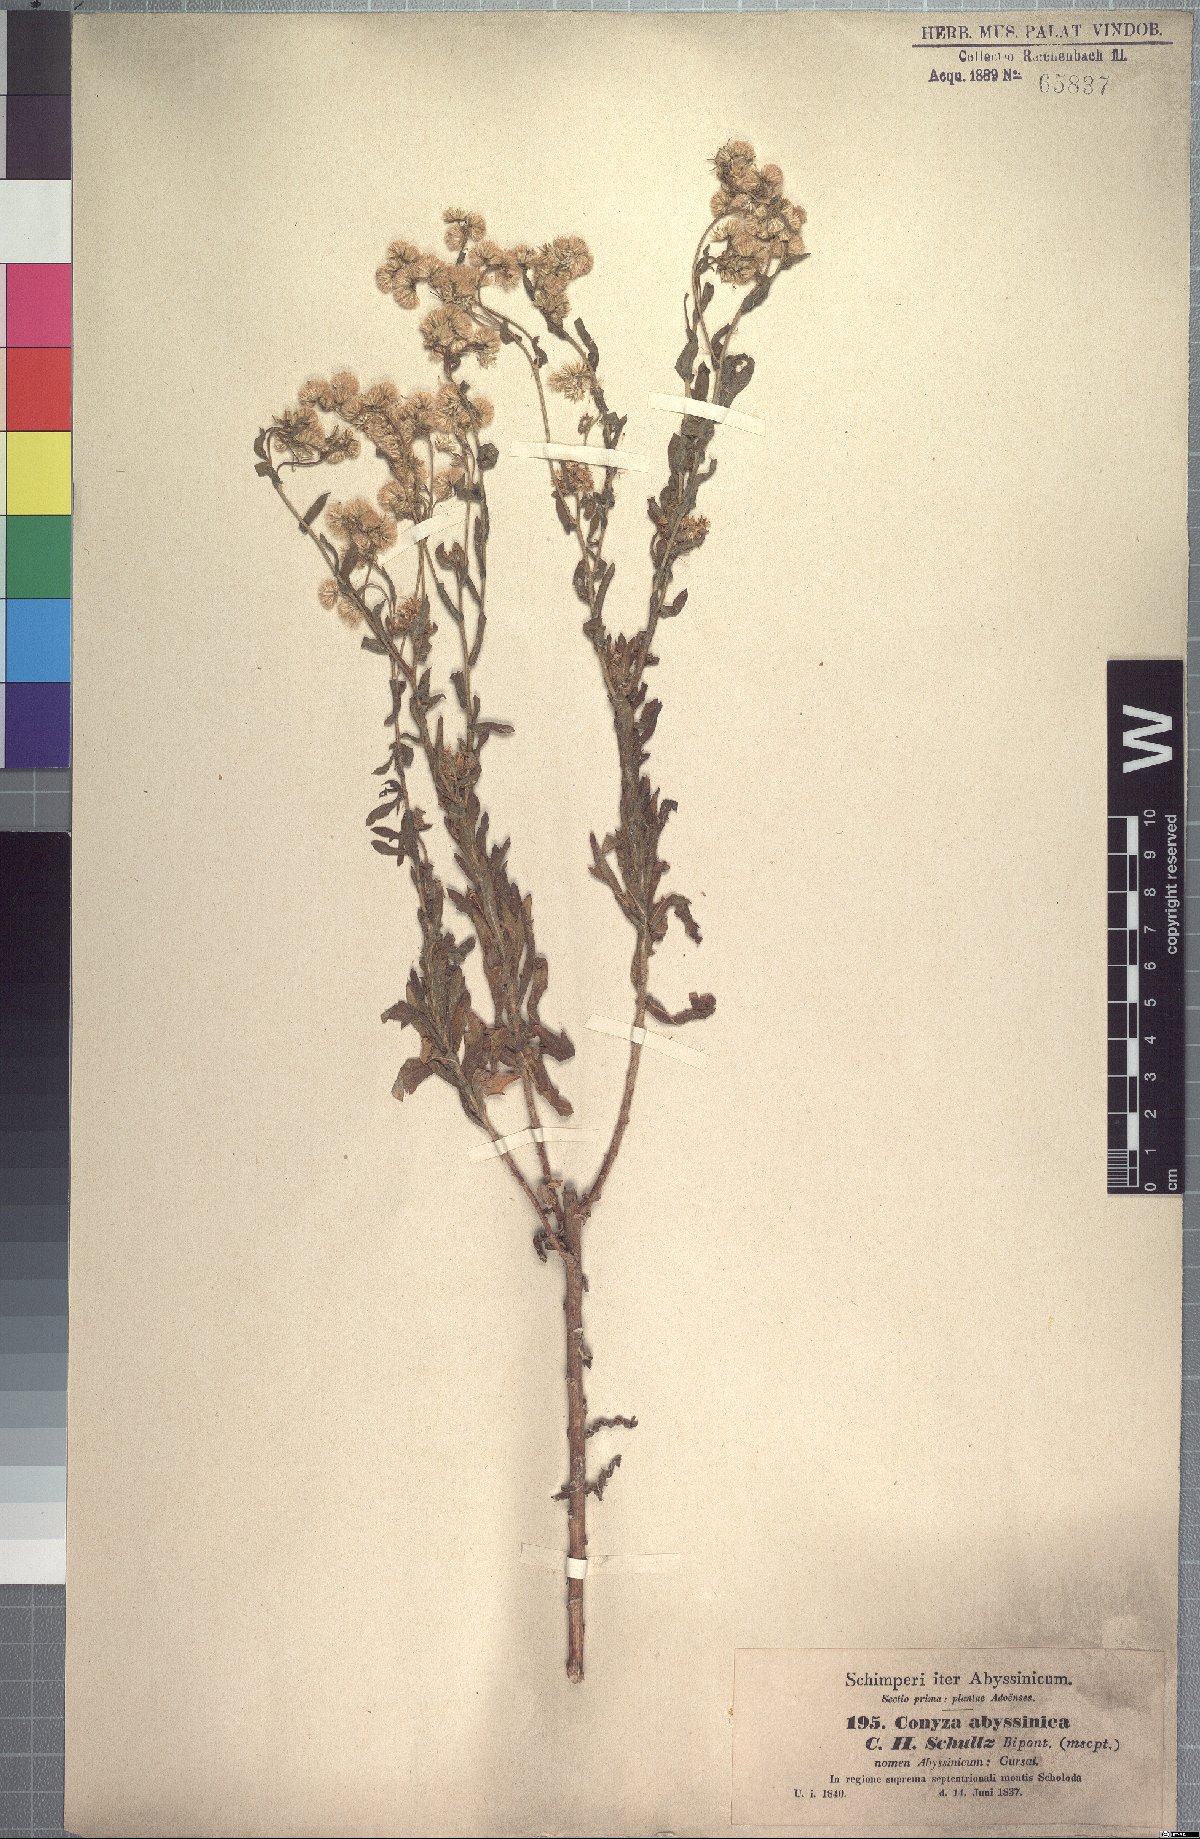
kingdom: Plantae
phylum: Tracheophyta
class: Magnoliopsida
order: Asterales
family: Asteraceae
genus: Conyza
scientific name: Conyza abyssinica
